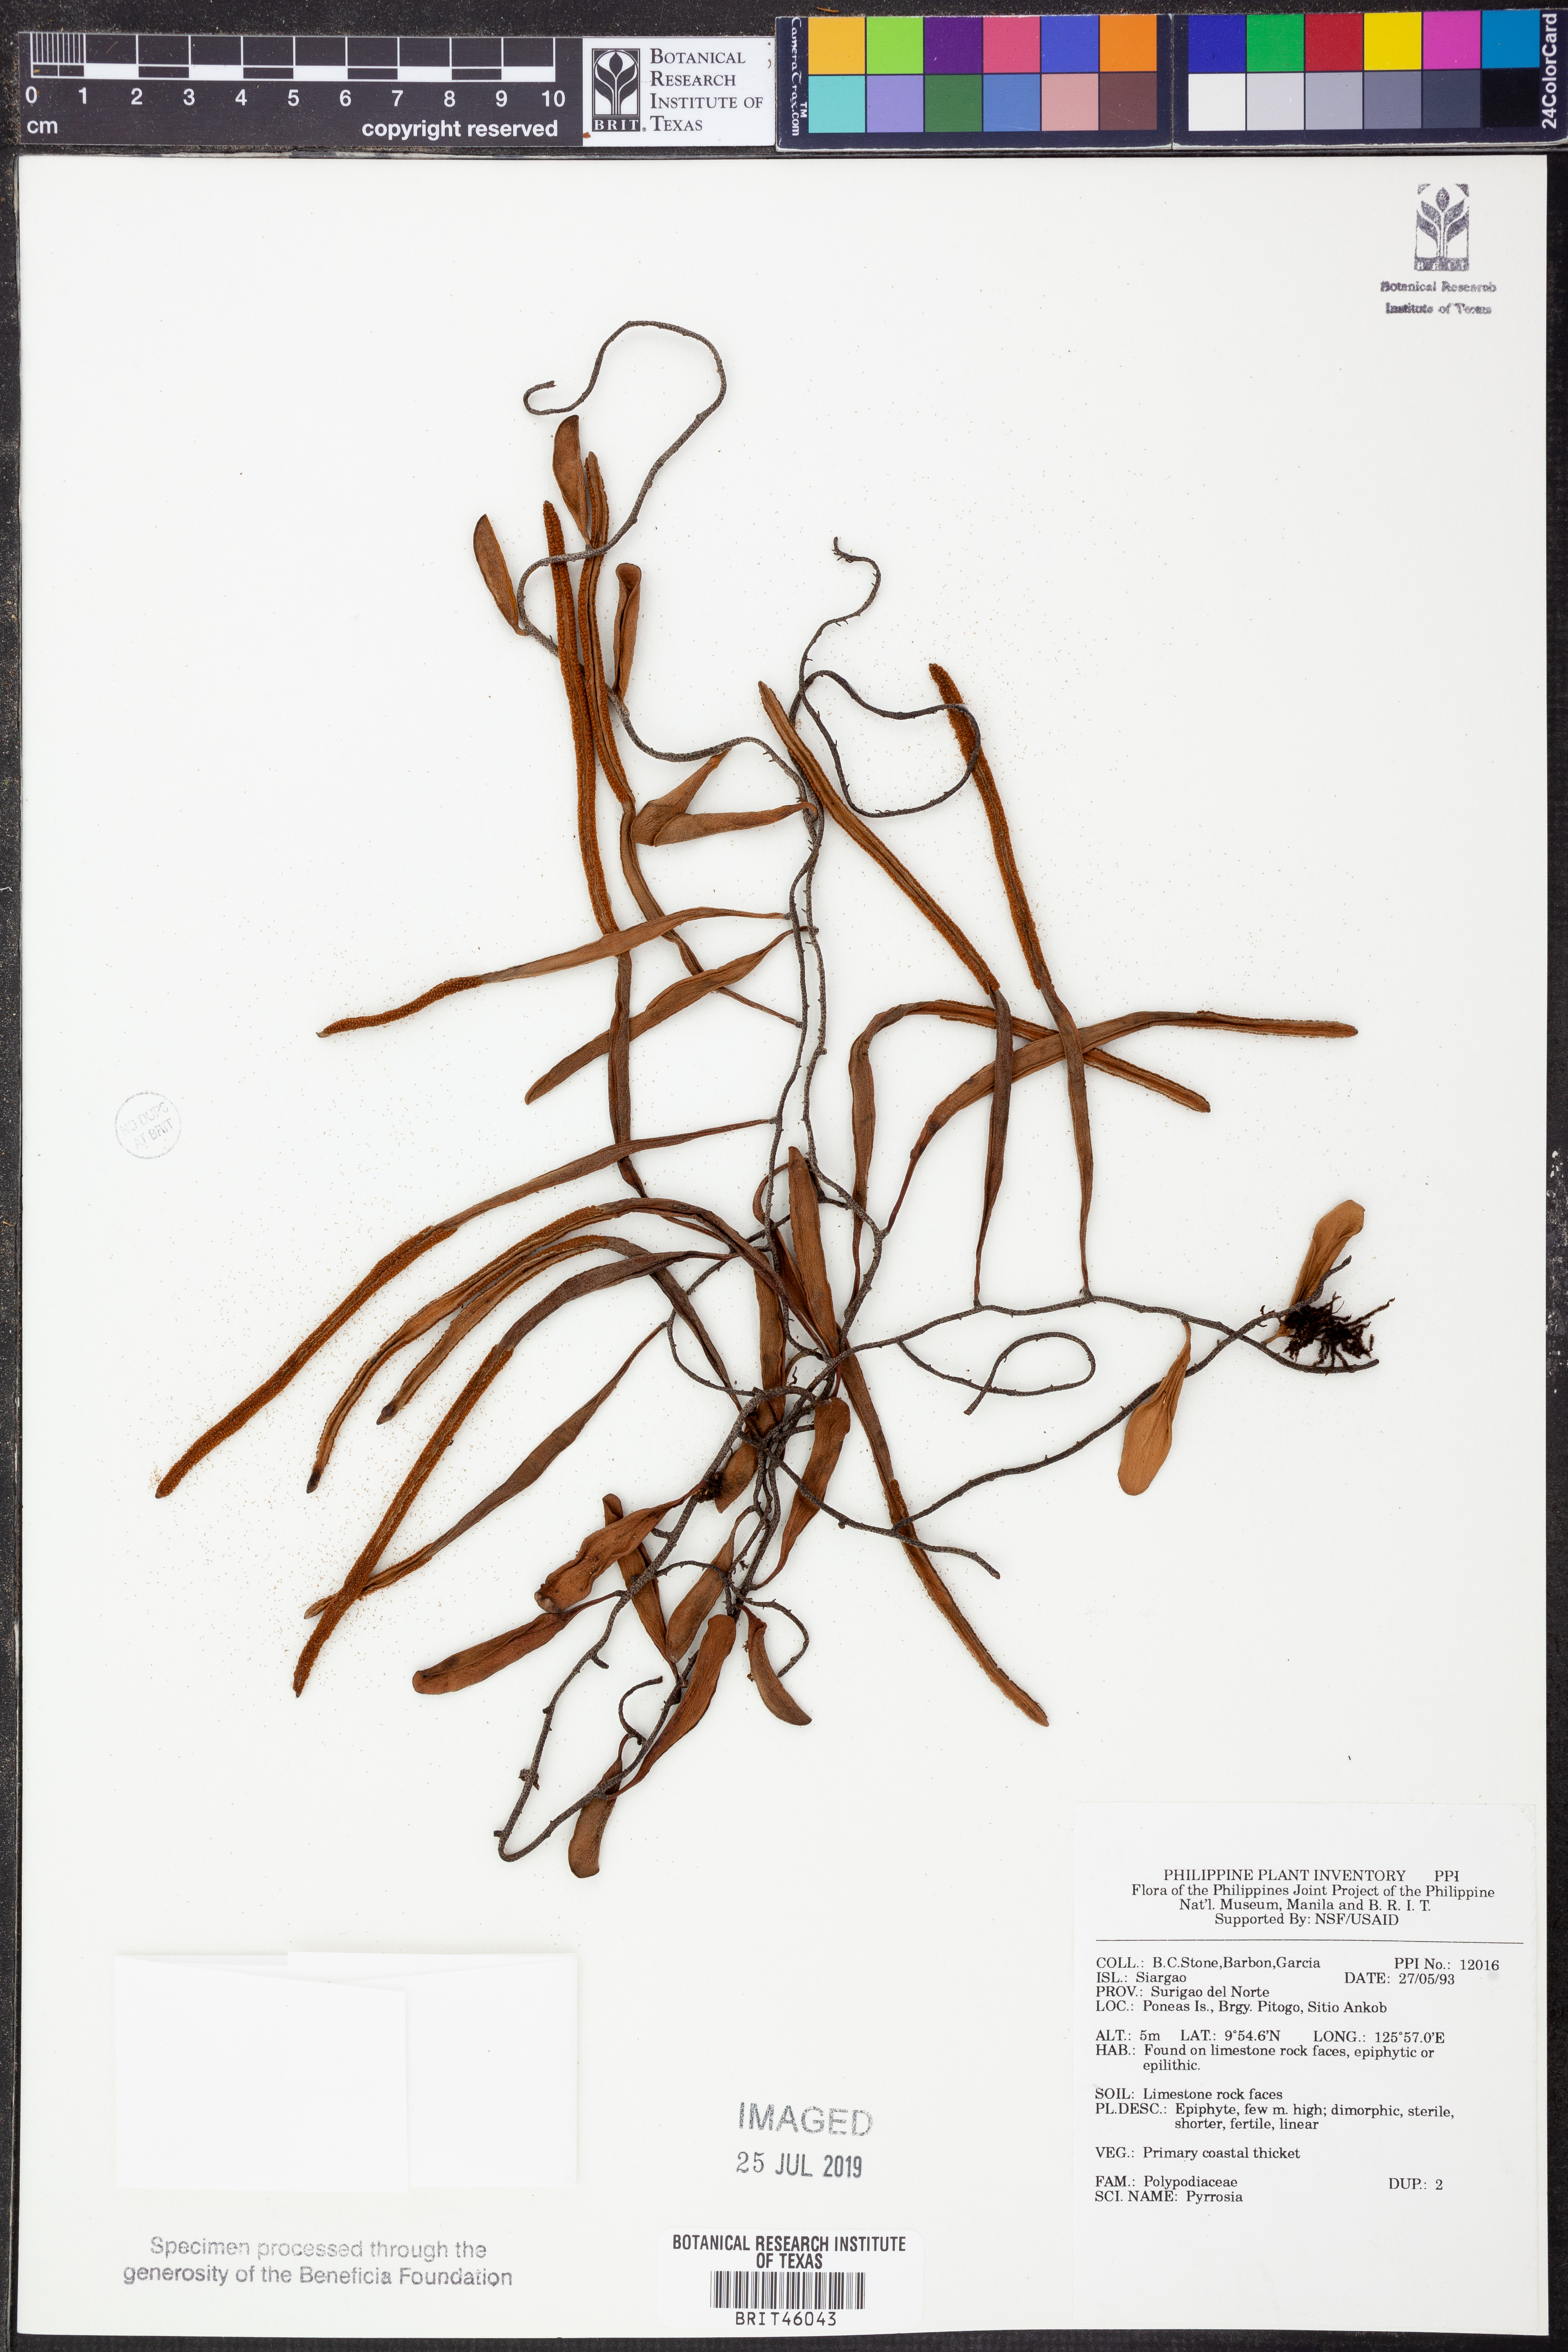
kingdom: Plantae
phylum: Tracheophyta
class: Polypodiopsida
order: Polypodiales
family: Polypodiaceae
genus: Pyrrosia
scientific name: Pyrrosia
